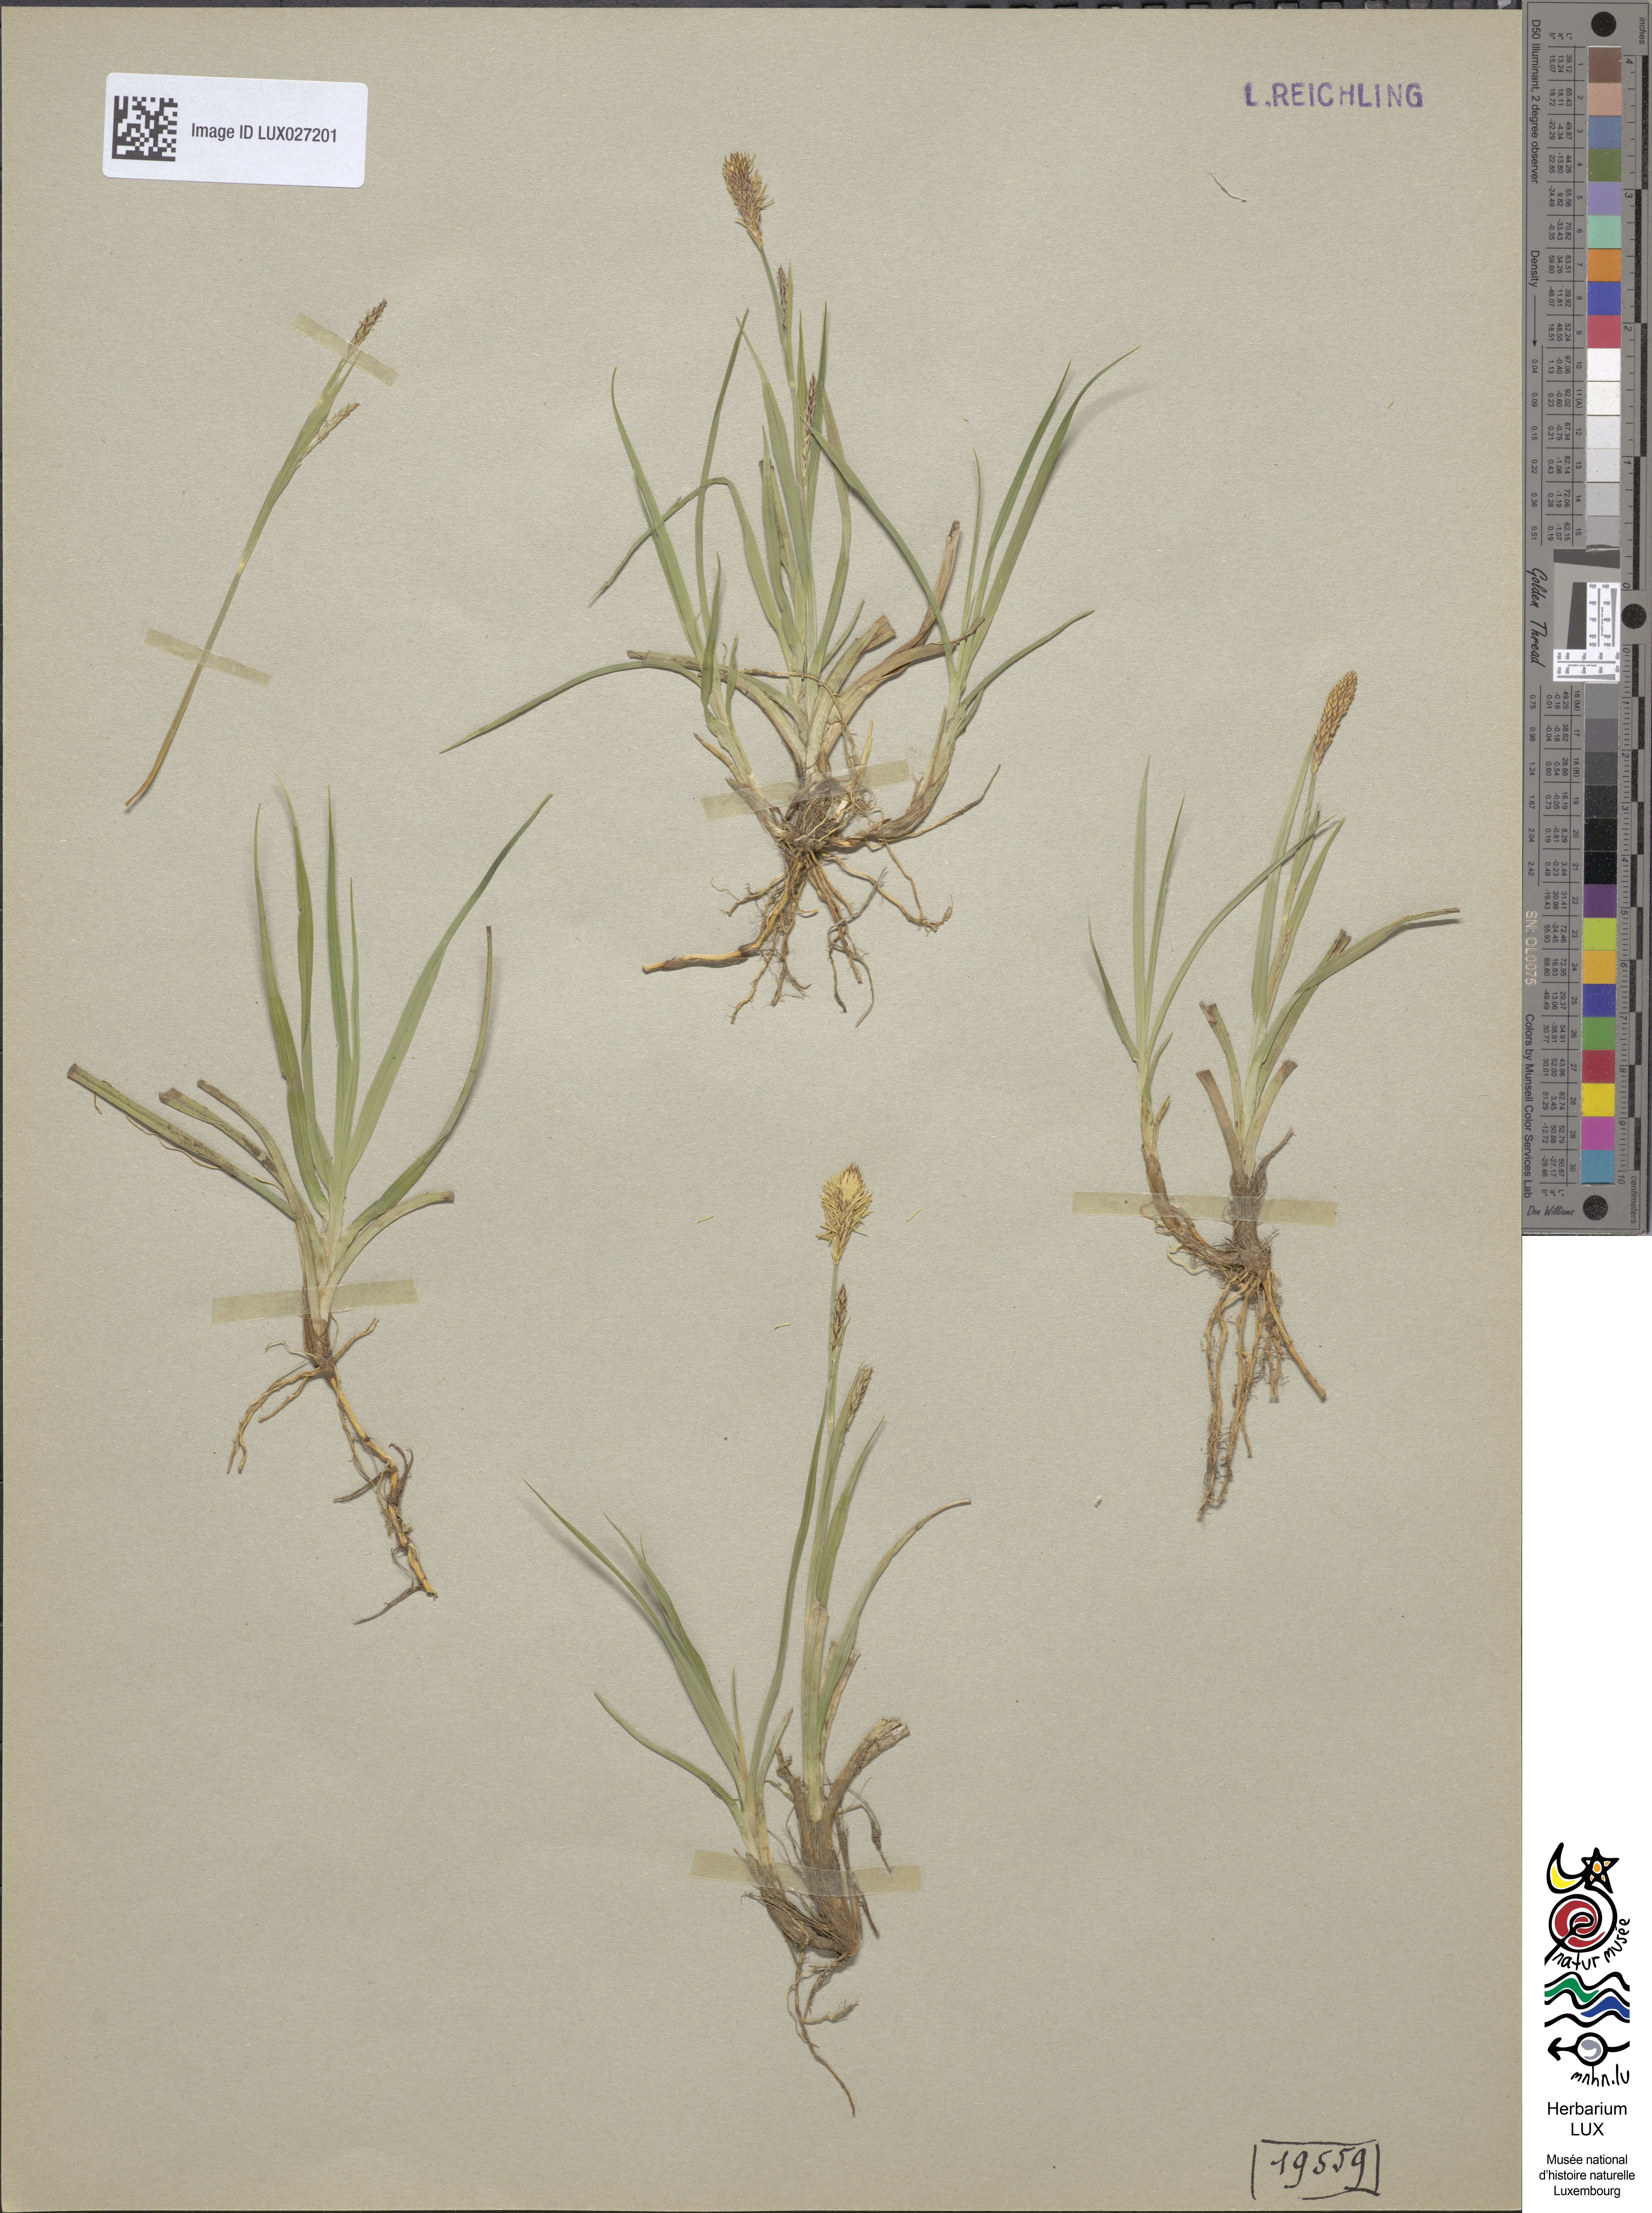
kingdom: Plantae
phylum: Tracheophyta
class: Liliopsida
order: Poales
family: Cyperaceae
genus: Carex
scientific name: Carex panicea
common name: Carnation sedge
